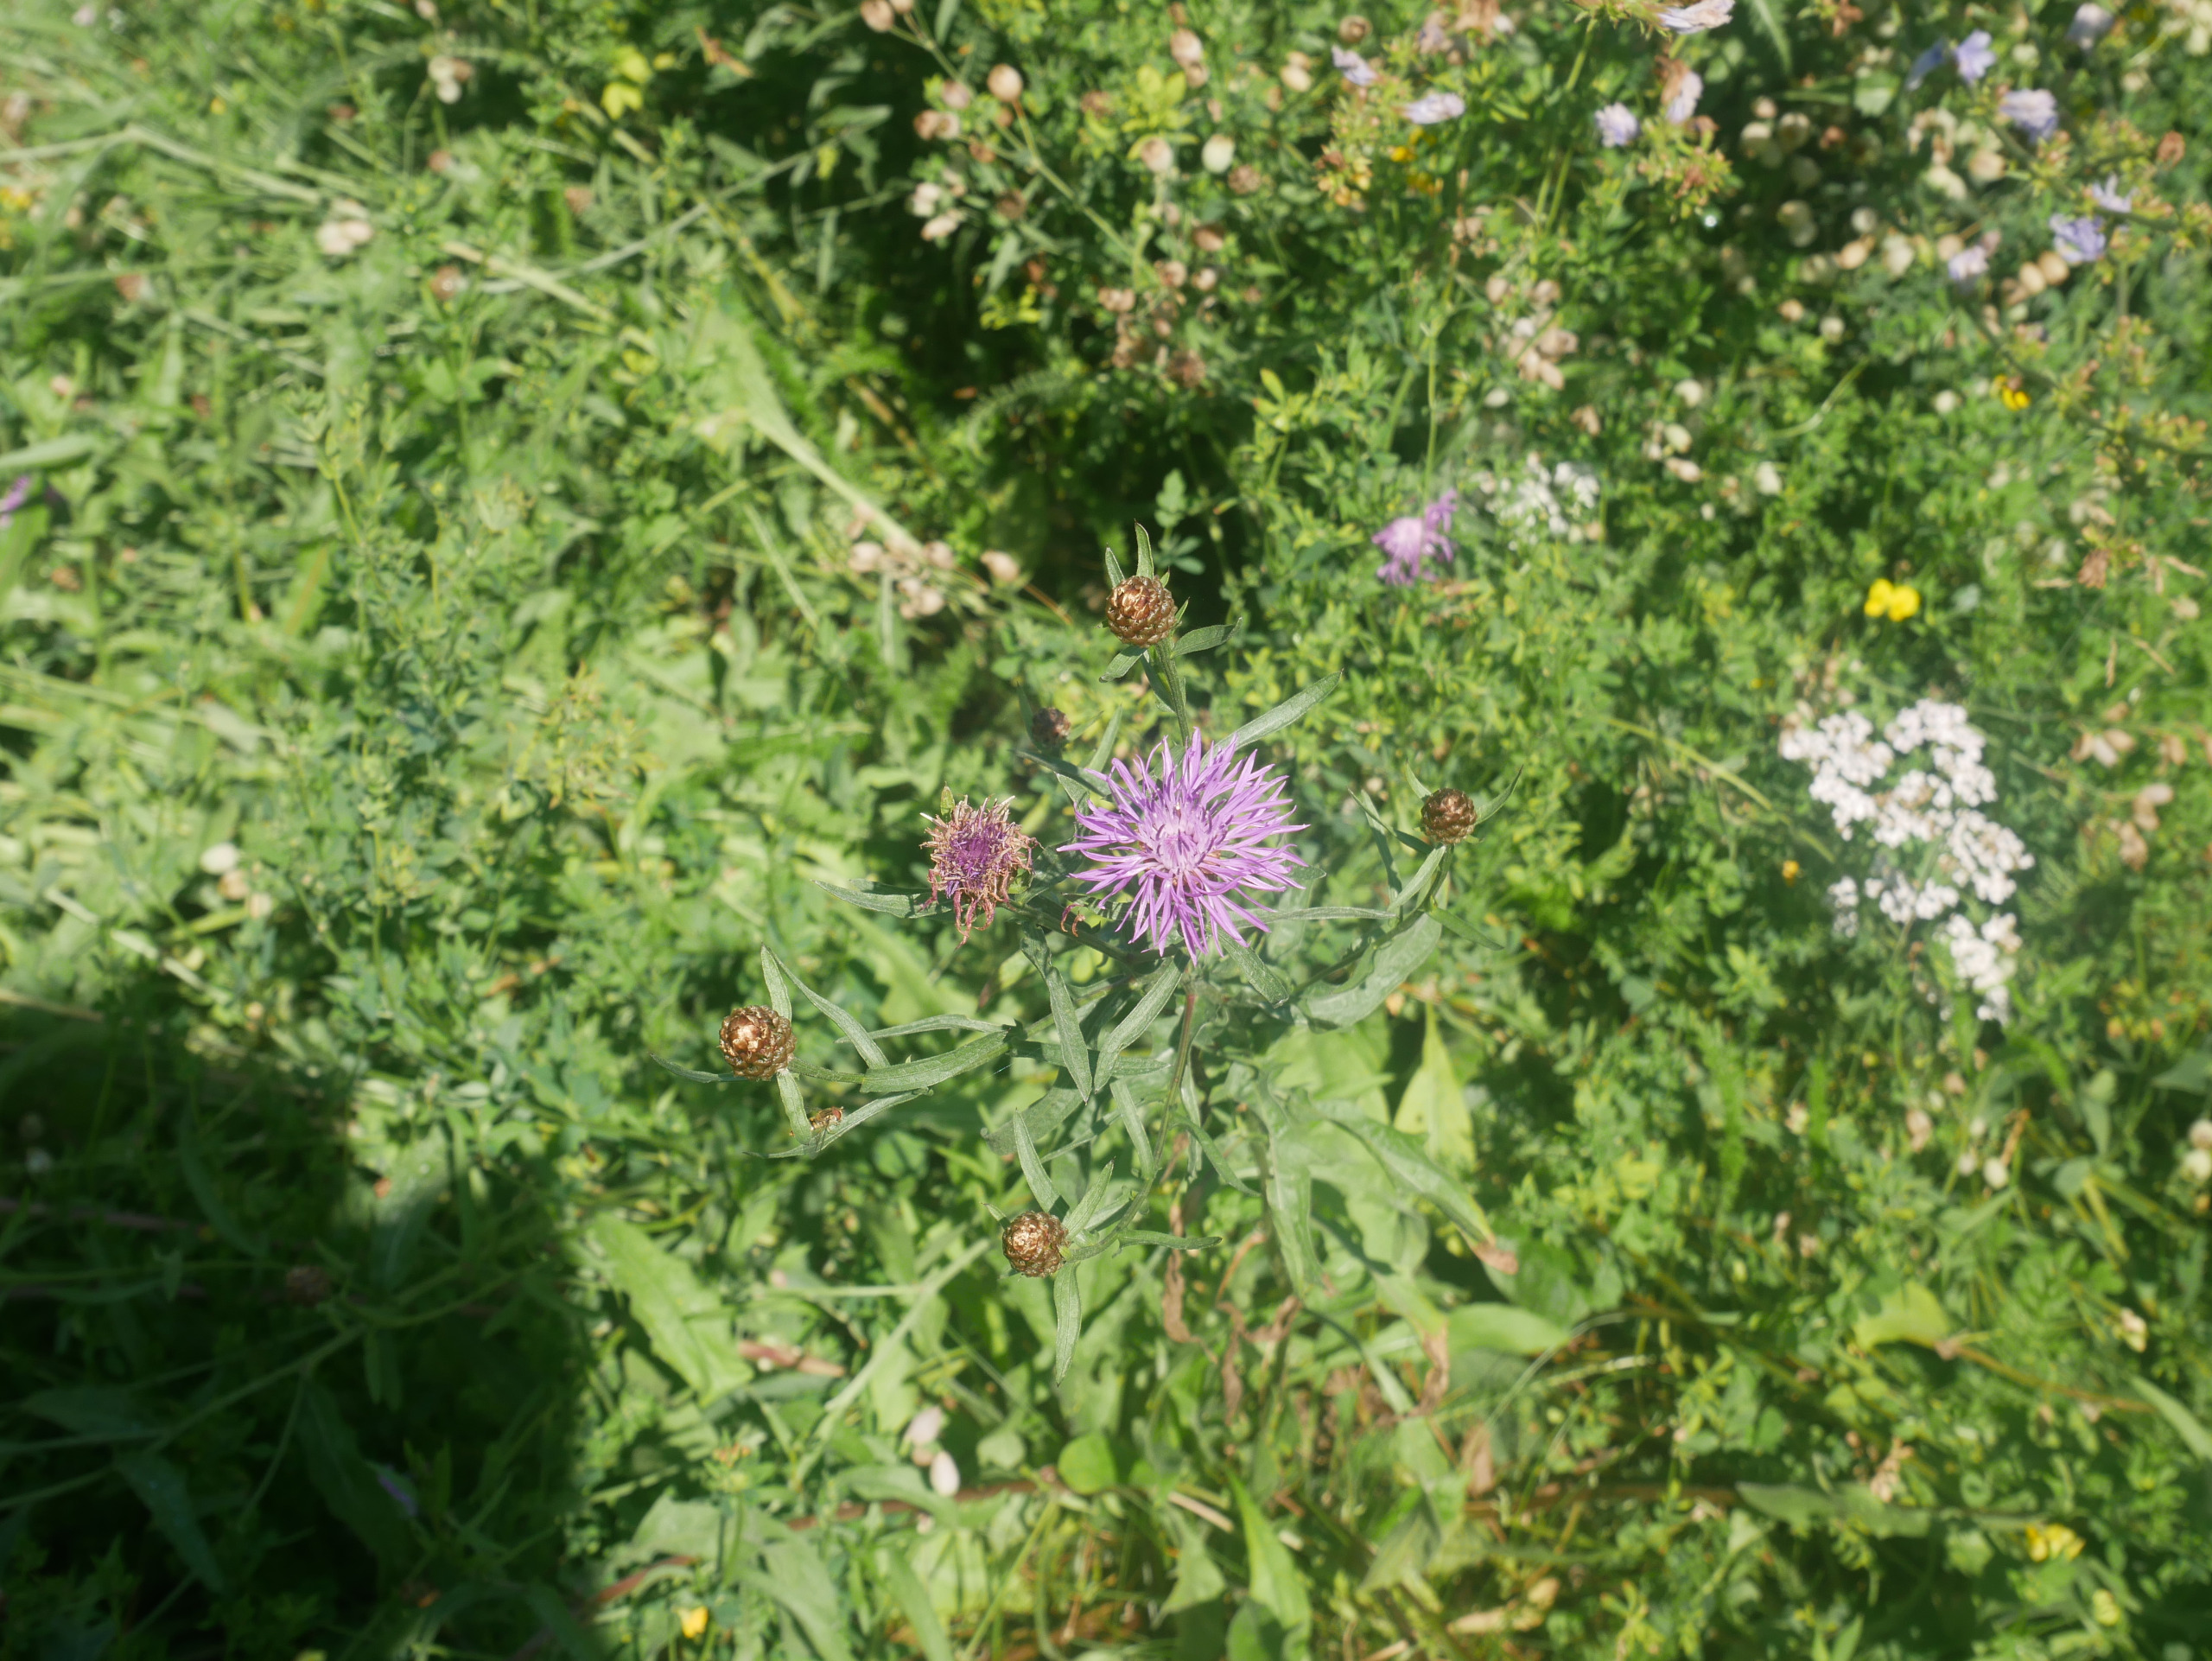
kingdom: Plantae
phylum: Tracheophyta
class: Magnoliopsida
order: Asterales
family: Asteraceae
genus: Centaurea
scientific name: Centaurea jacea
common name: Almindelig knopurt
